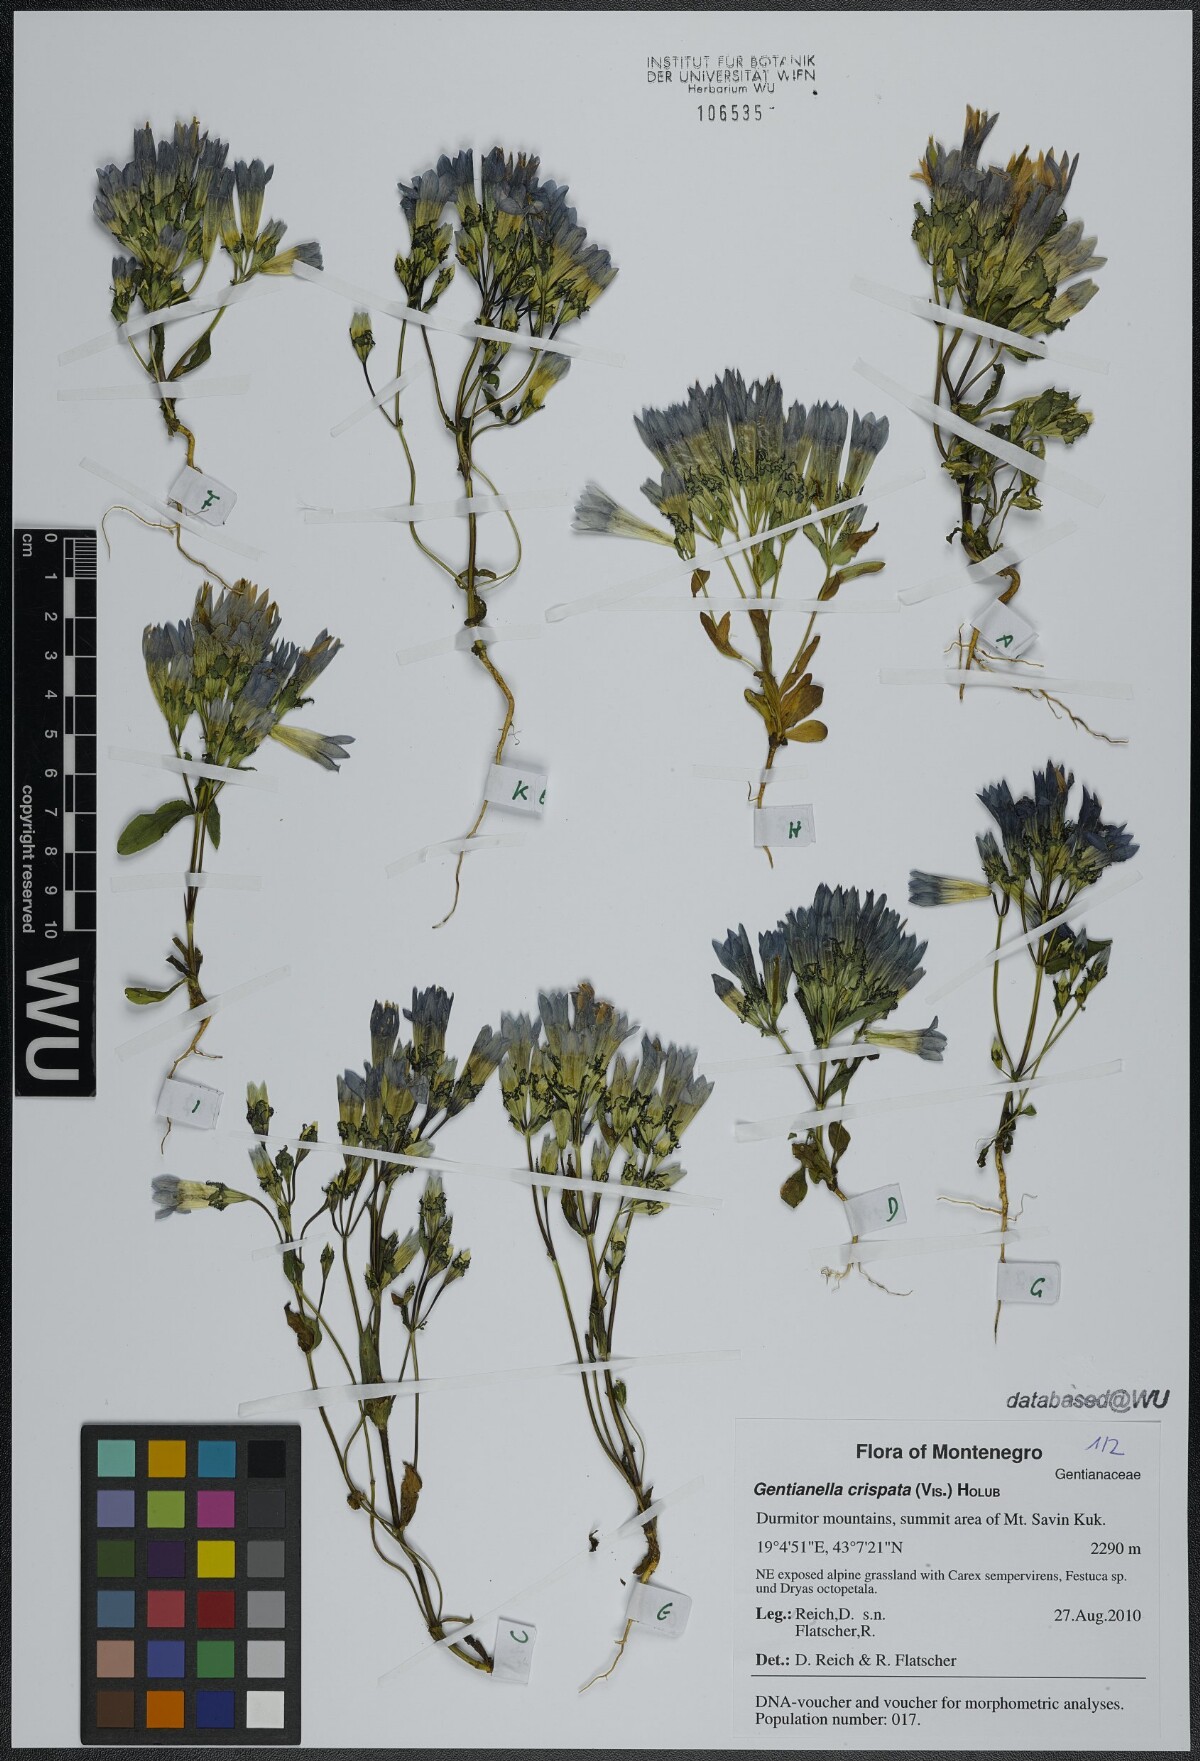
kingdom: Plantae
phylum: Tracheophyta
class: Magnoliopsida
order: Gentianales
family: Gentianaceae
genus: Gentianella
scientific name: Gentianella crispata
